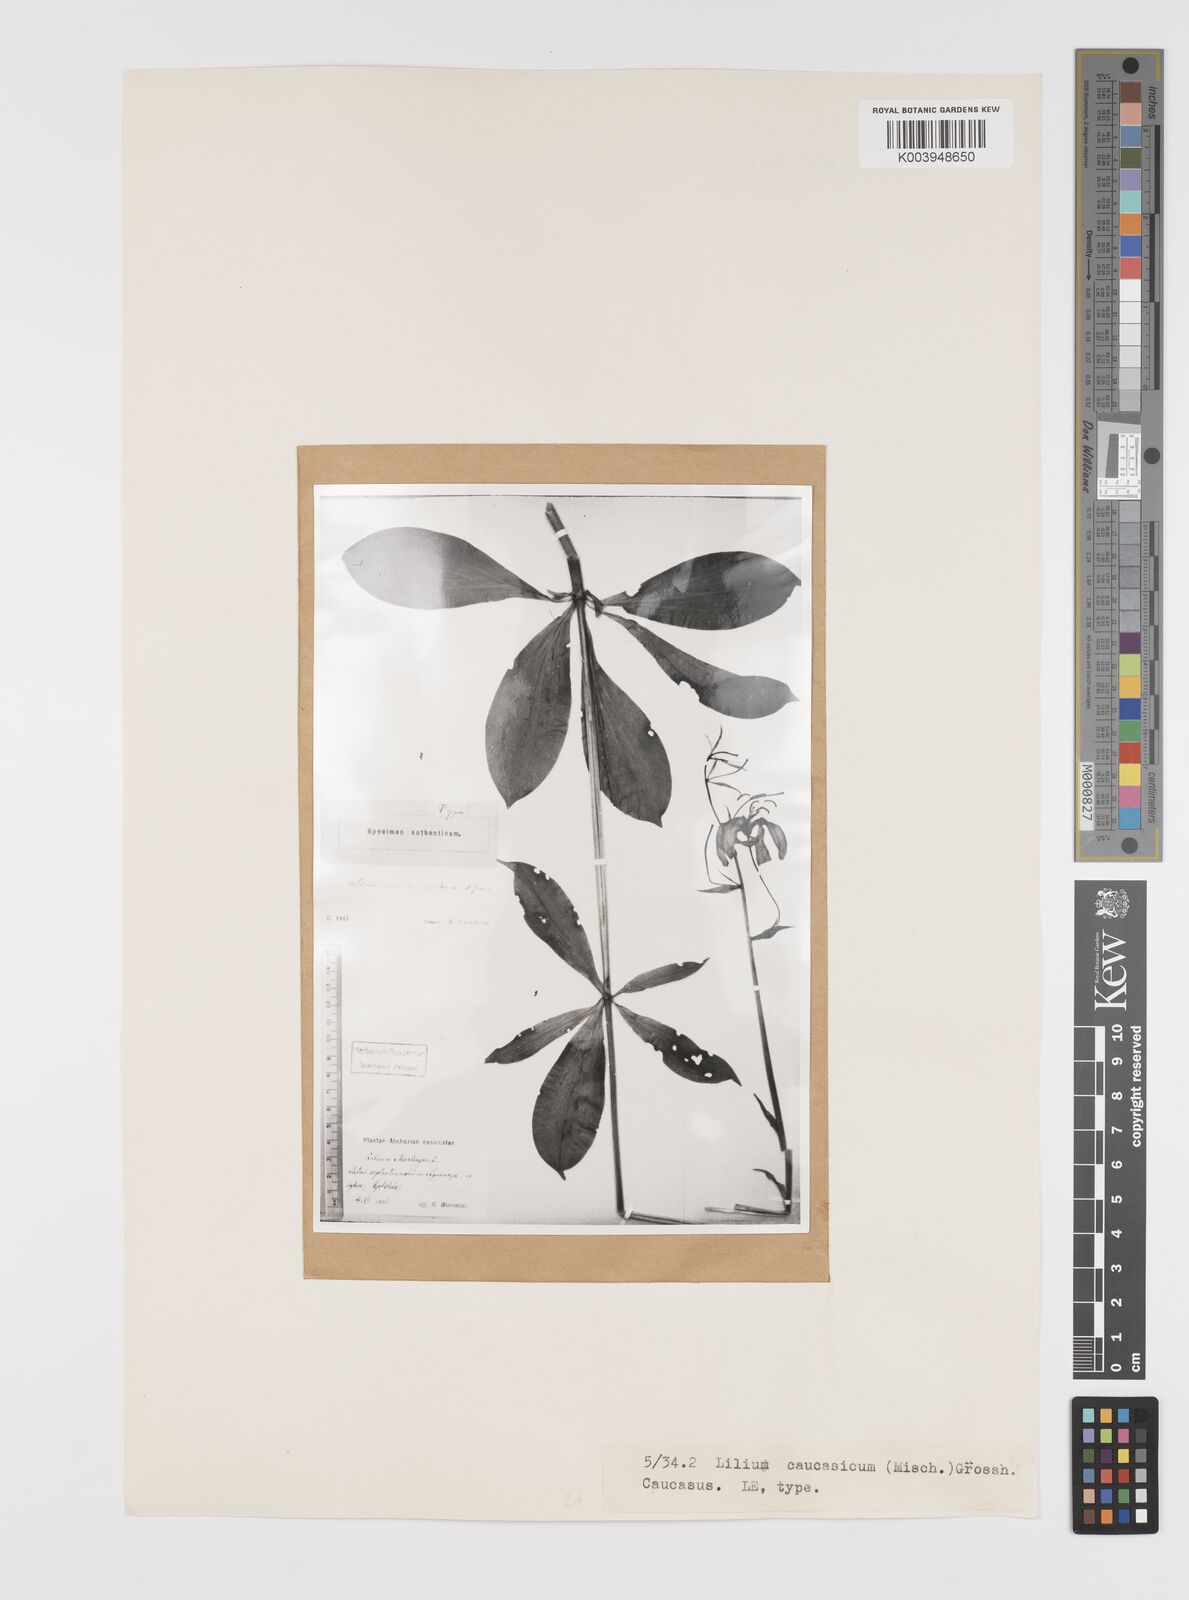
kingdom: Plantae
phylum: Tracheophyta
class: Liliopsida
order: Liliales
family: Liliaceae
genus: Lilium
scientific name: Lilium martagon
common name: Martagon lily
